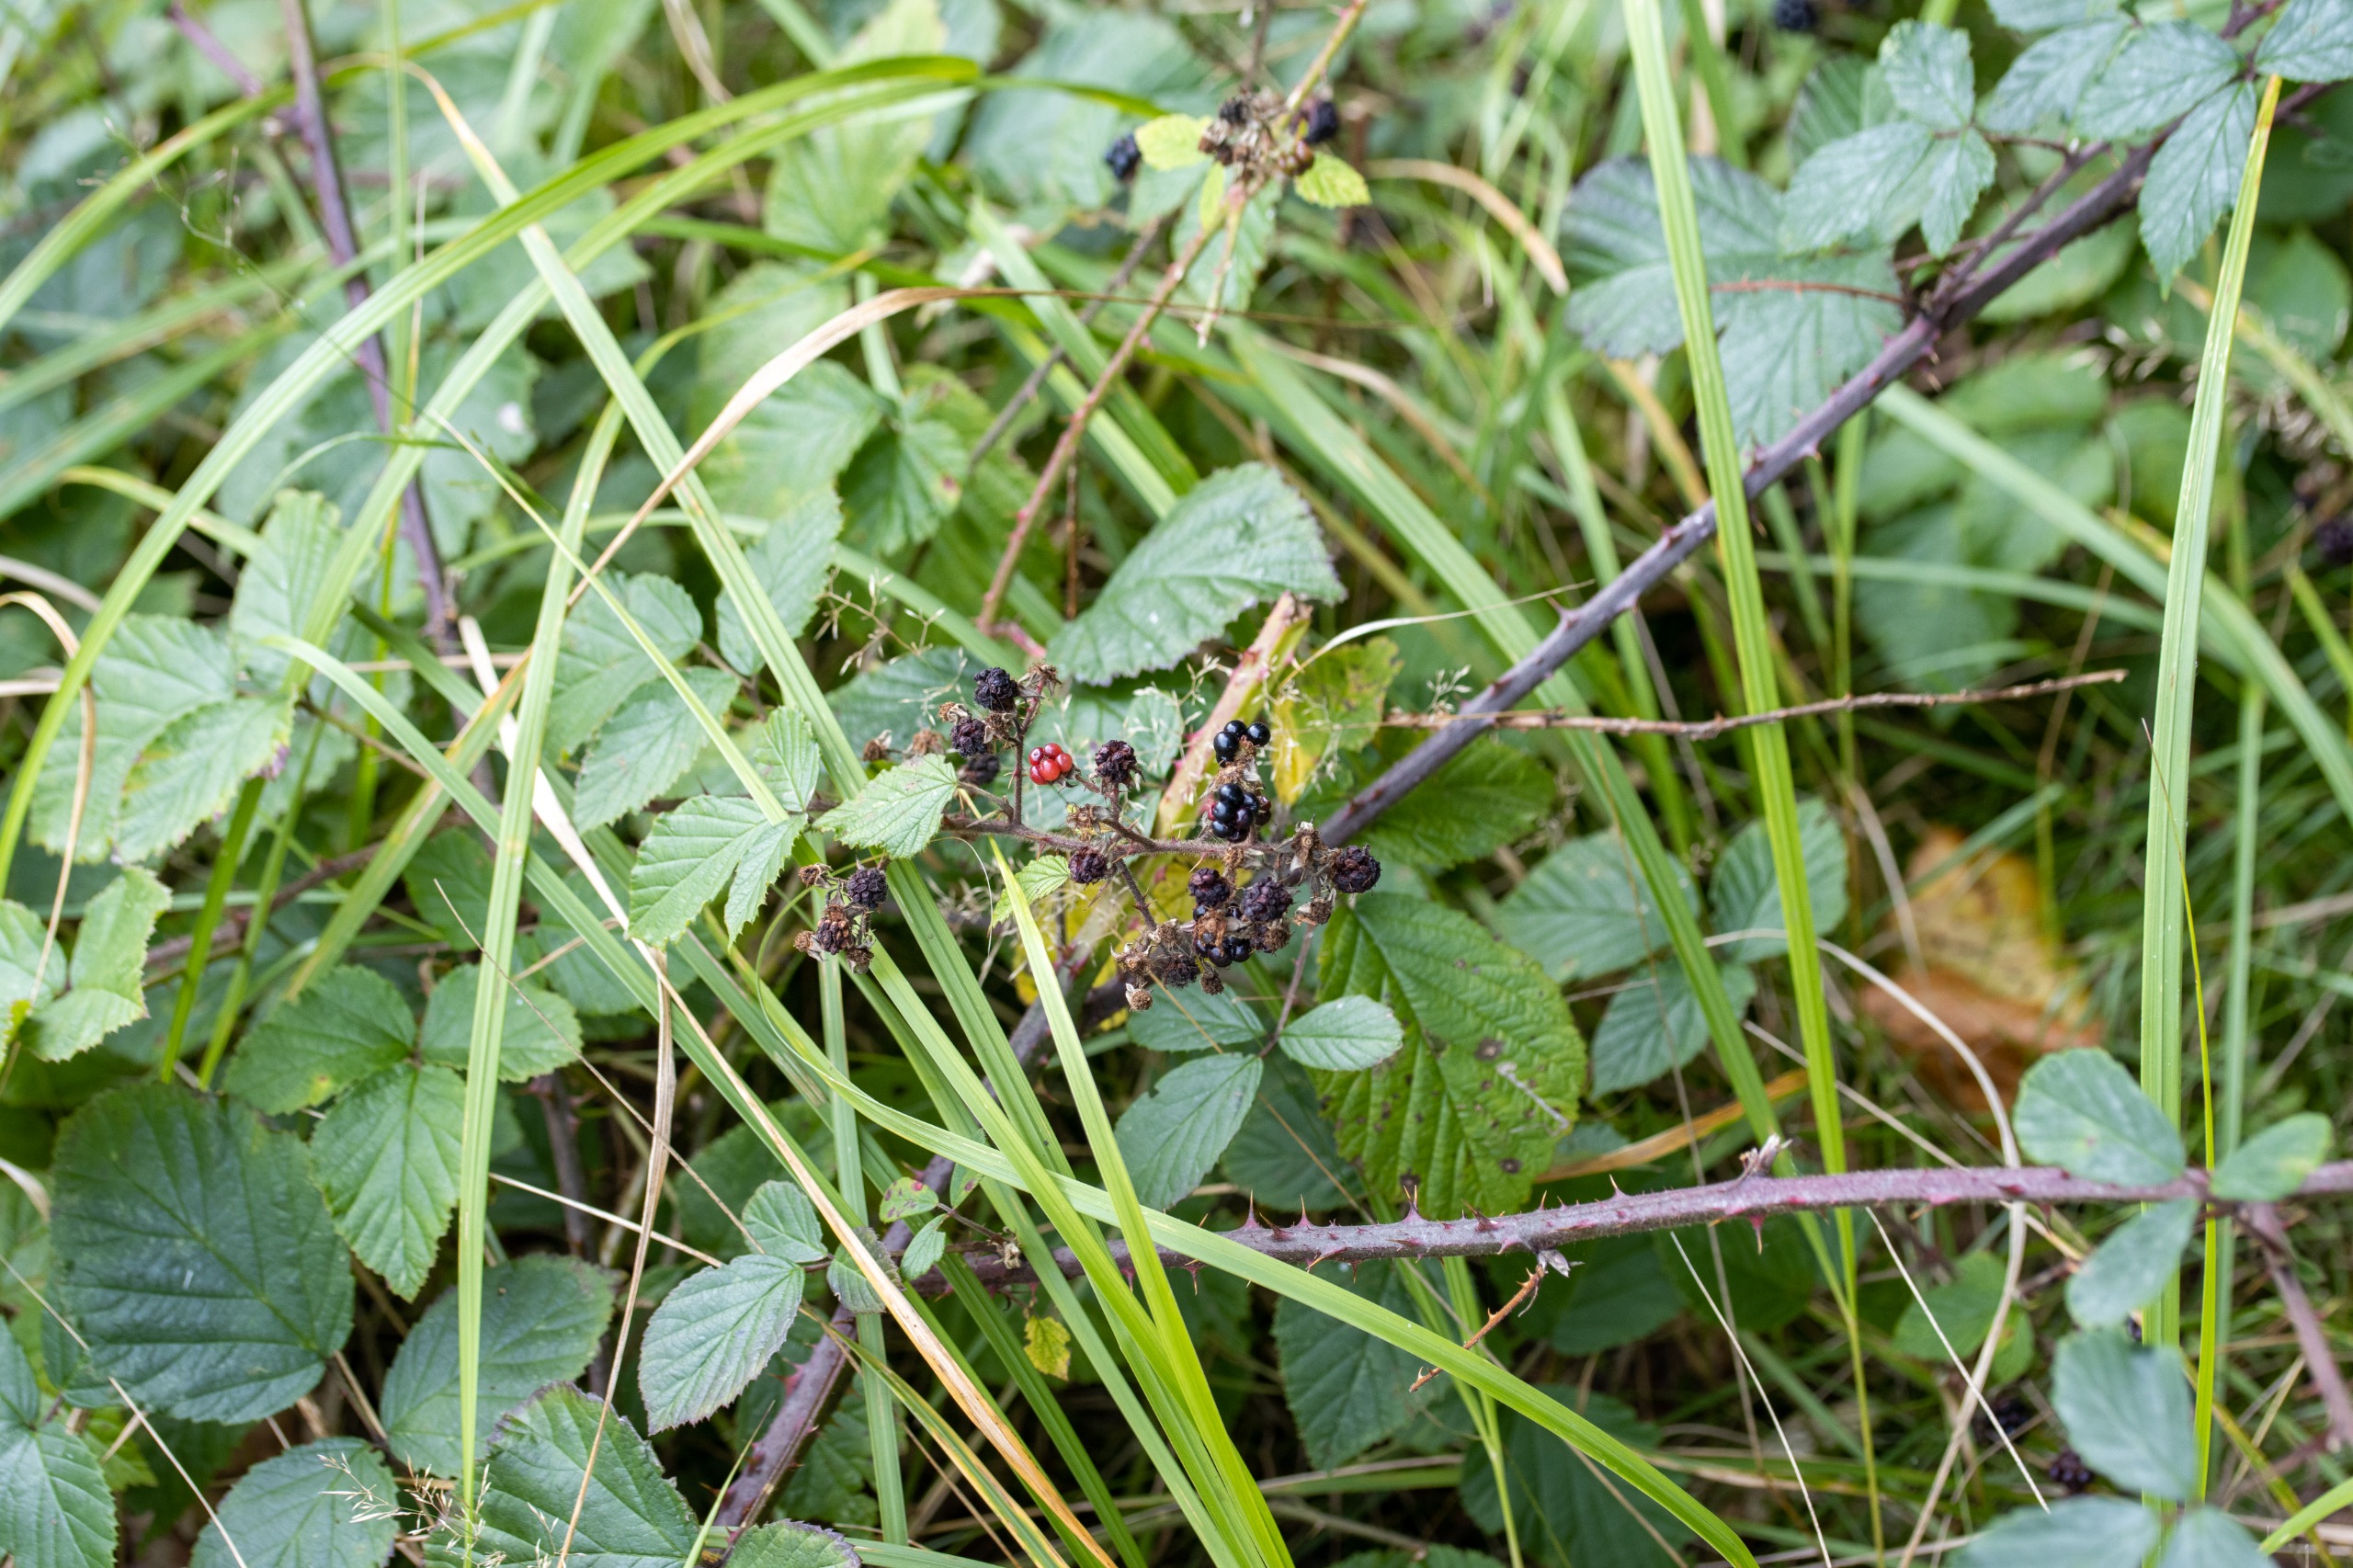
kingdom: Plantae
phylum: Tracheophyta
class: Magnoliopsida
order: Rosales
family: Rosaceae
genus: Rubus
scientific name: Rubus radula
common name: Rasperu brombær
